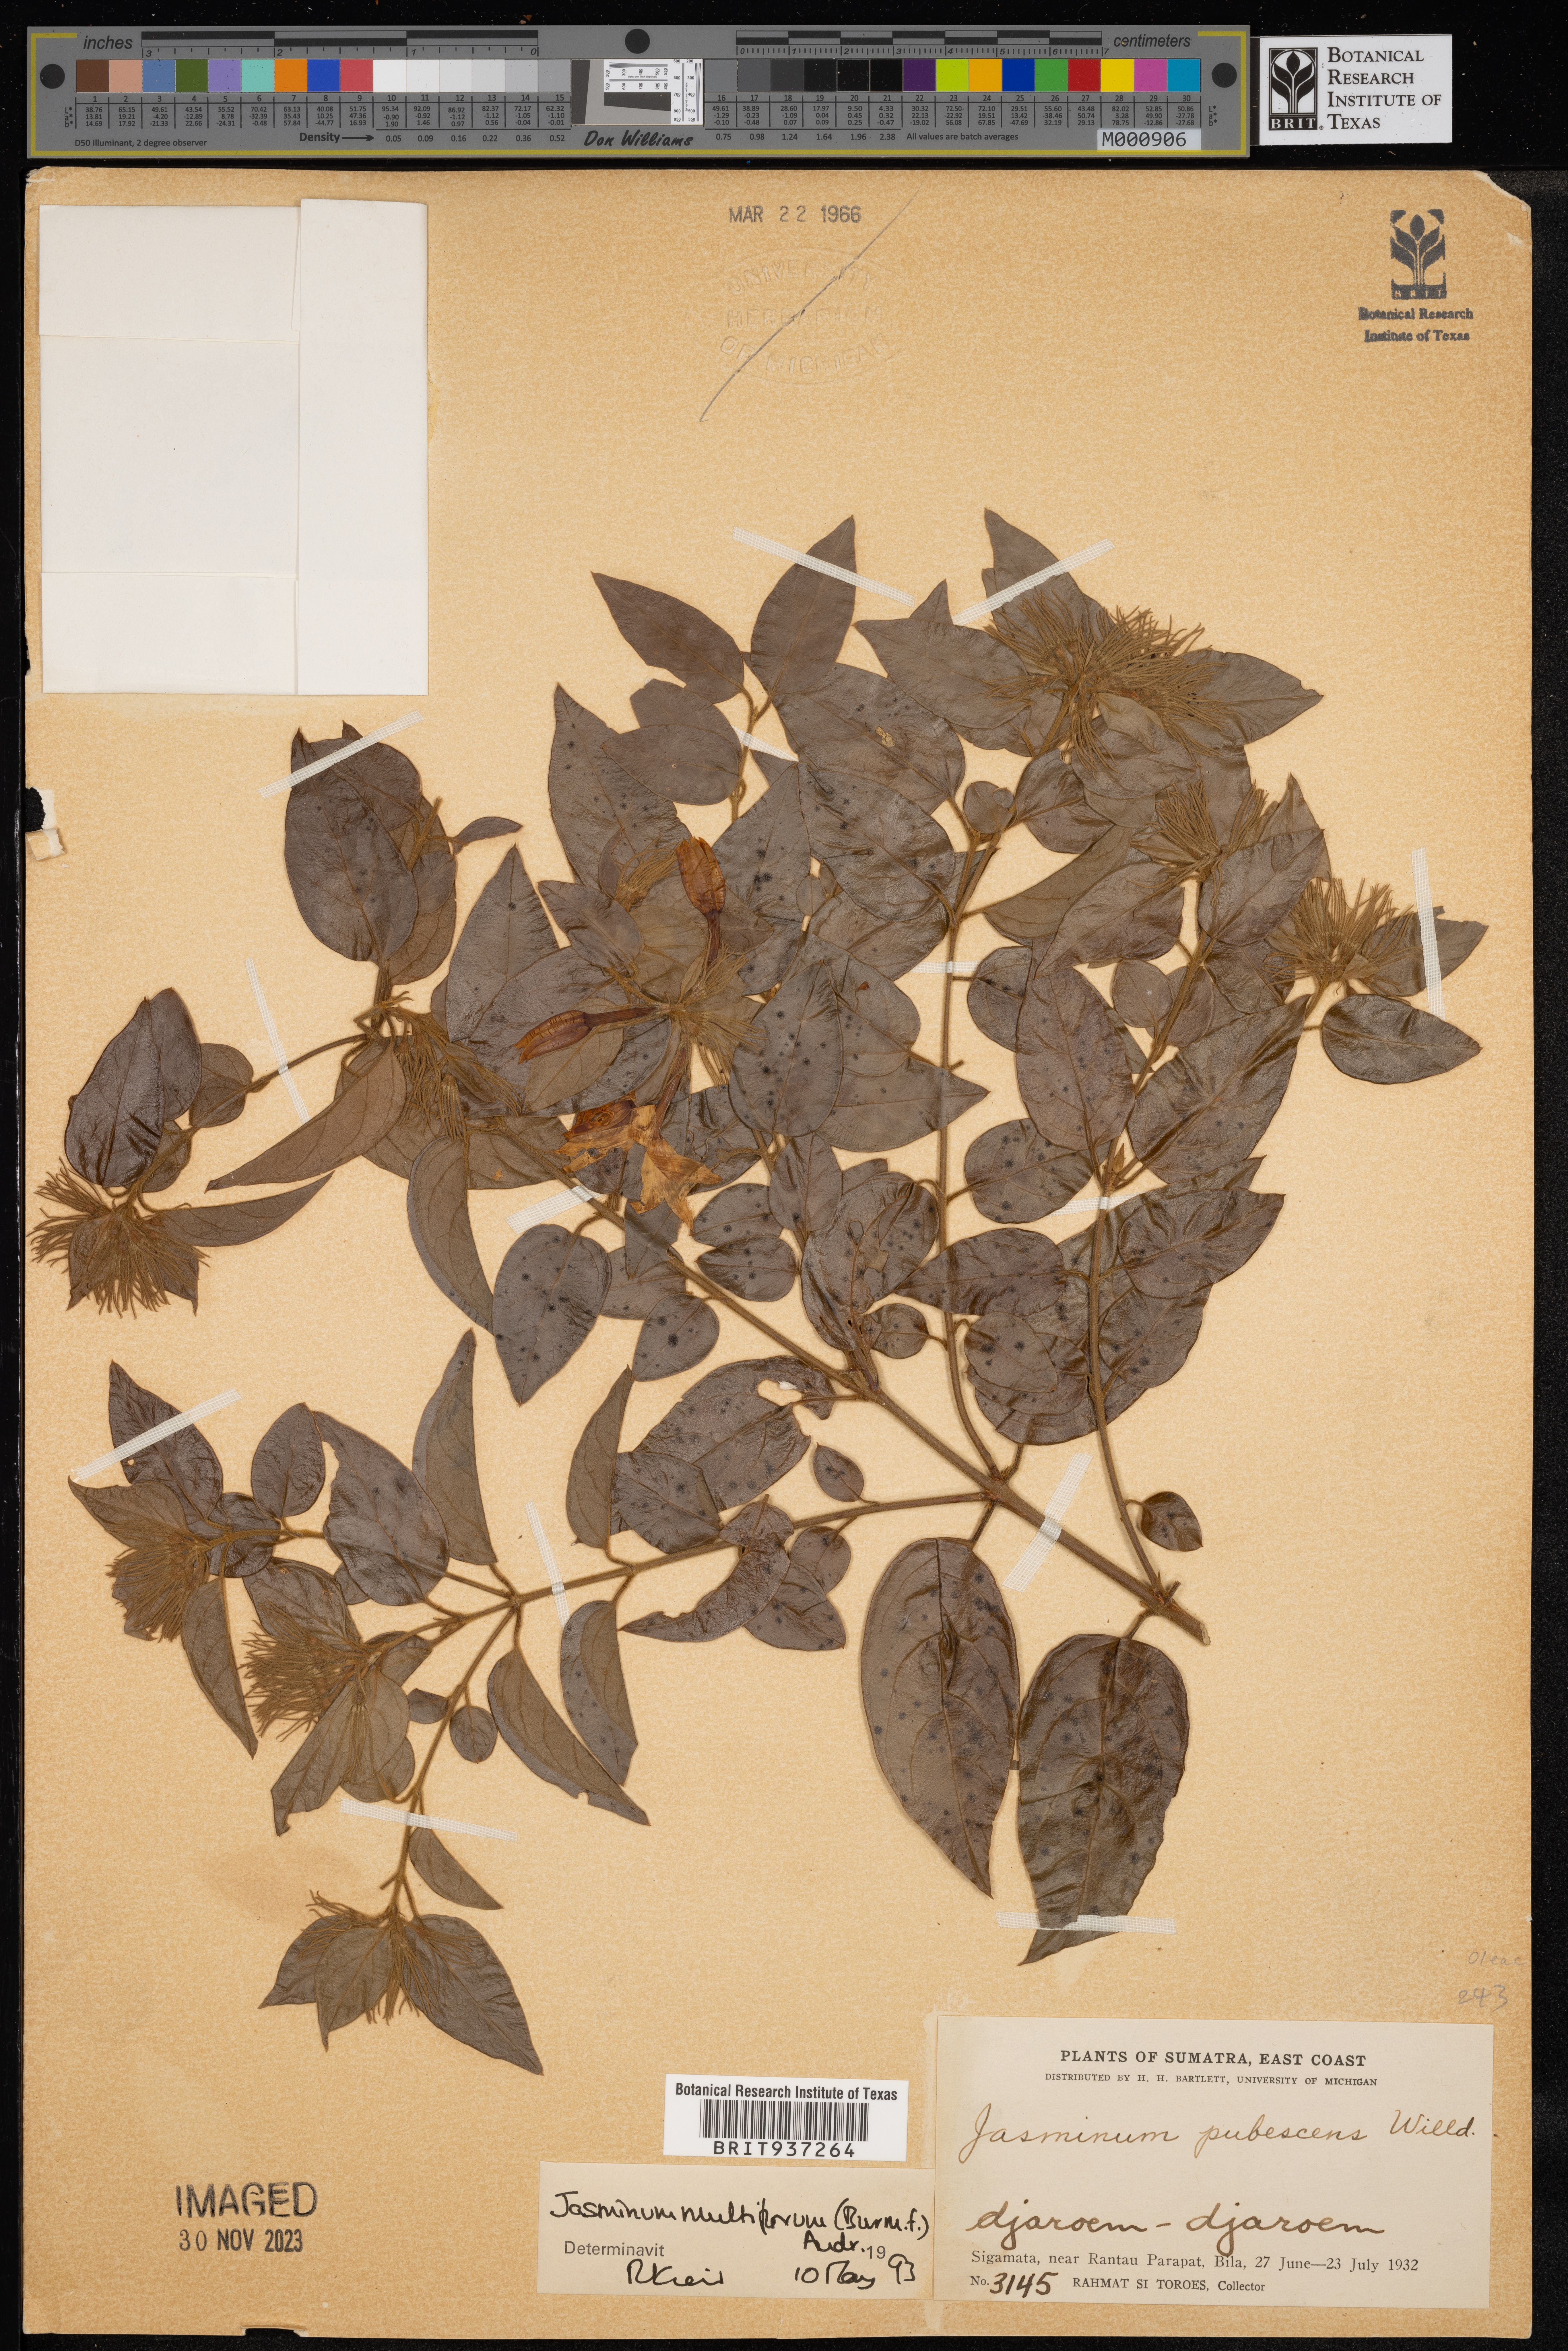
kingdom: Plantae
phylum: Tracheophyta
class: Magnoliopsida
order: Lamiales
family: Oleaceae
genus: Jasminum
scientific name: Jasminum
